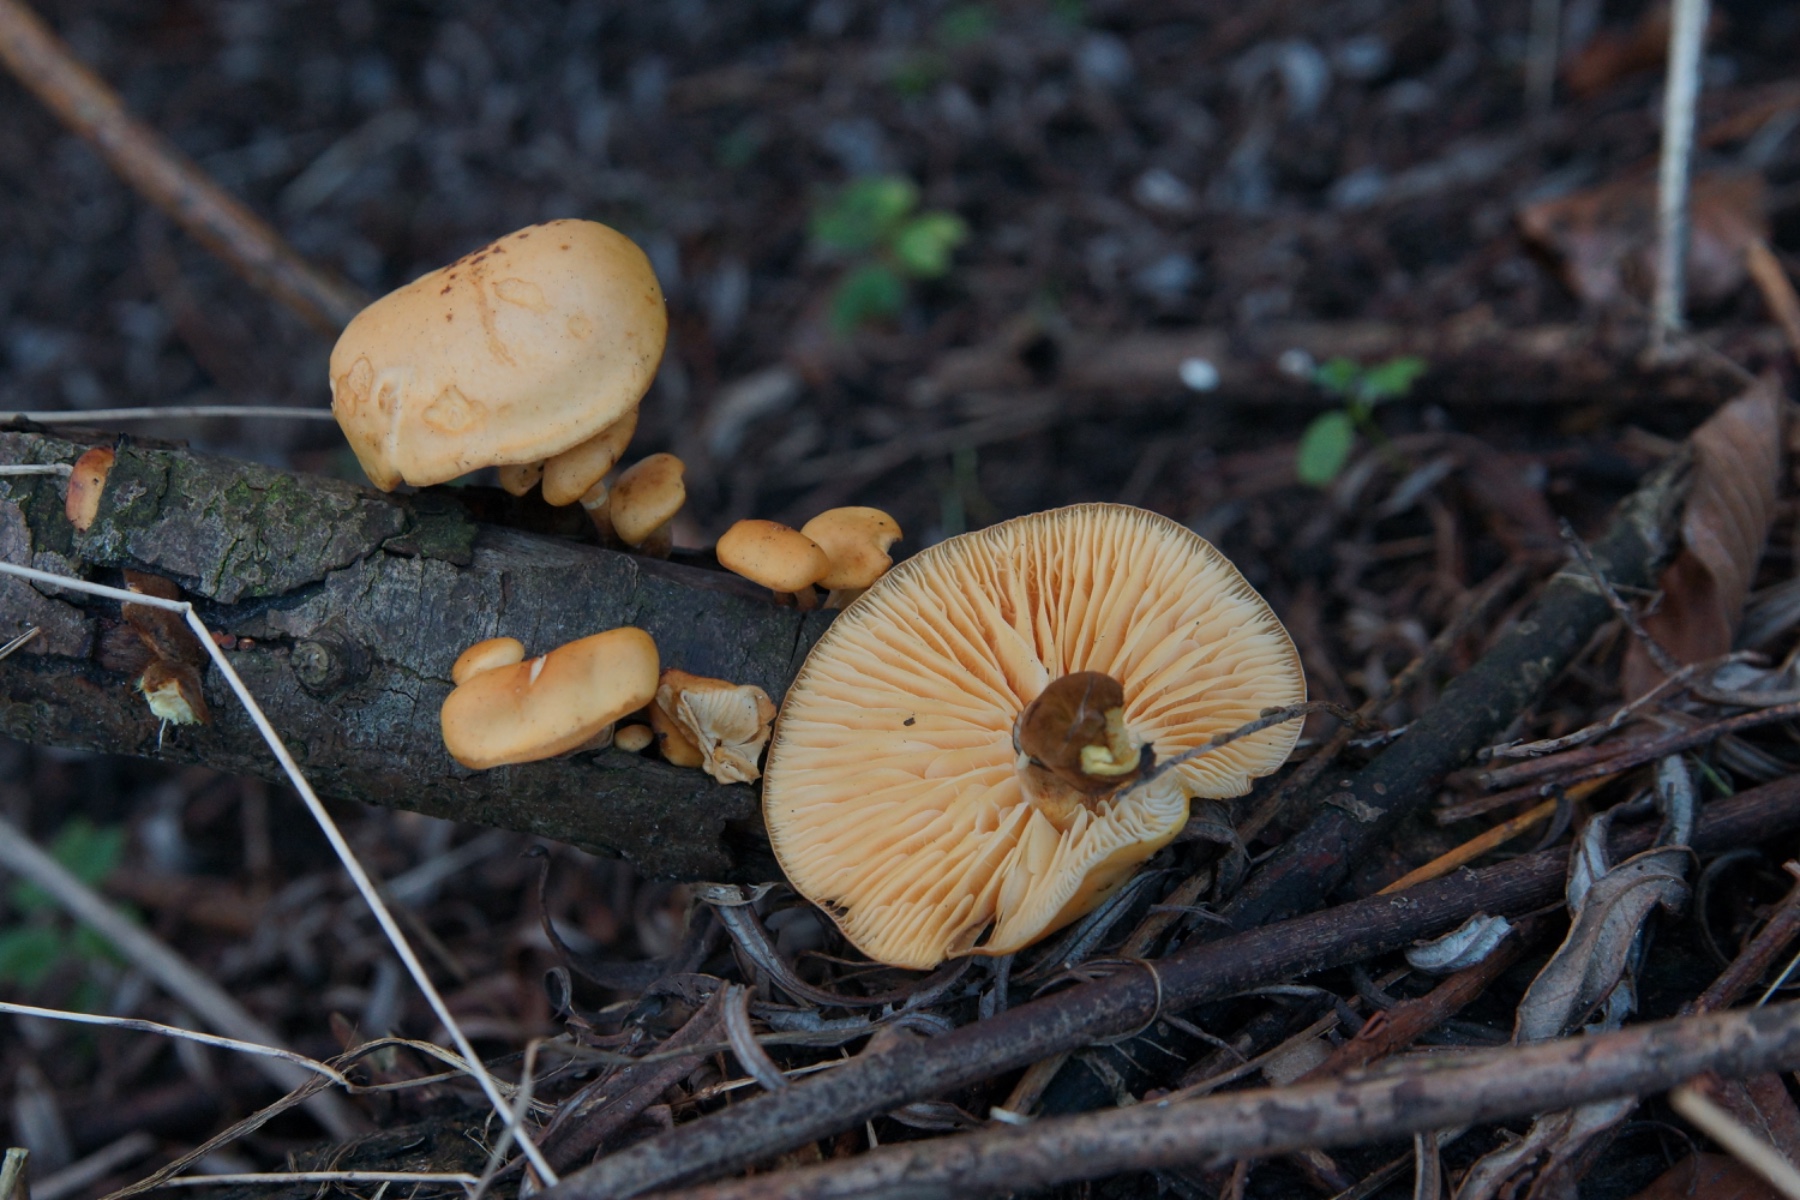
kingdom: Fungi
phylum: Basidiomycota
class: Agaricomycetes
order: Agaricales
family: Physalacriaceae
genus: Flammulina
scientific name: Flammulina
